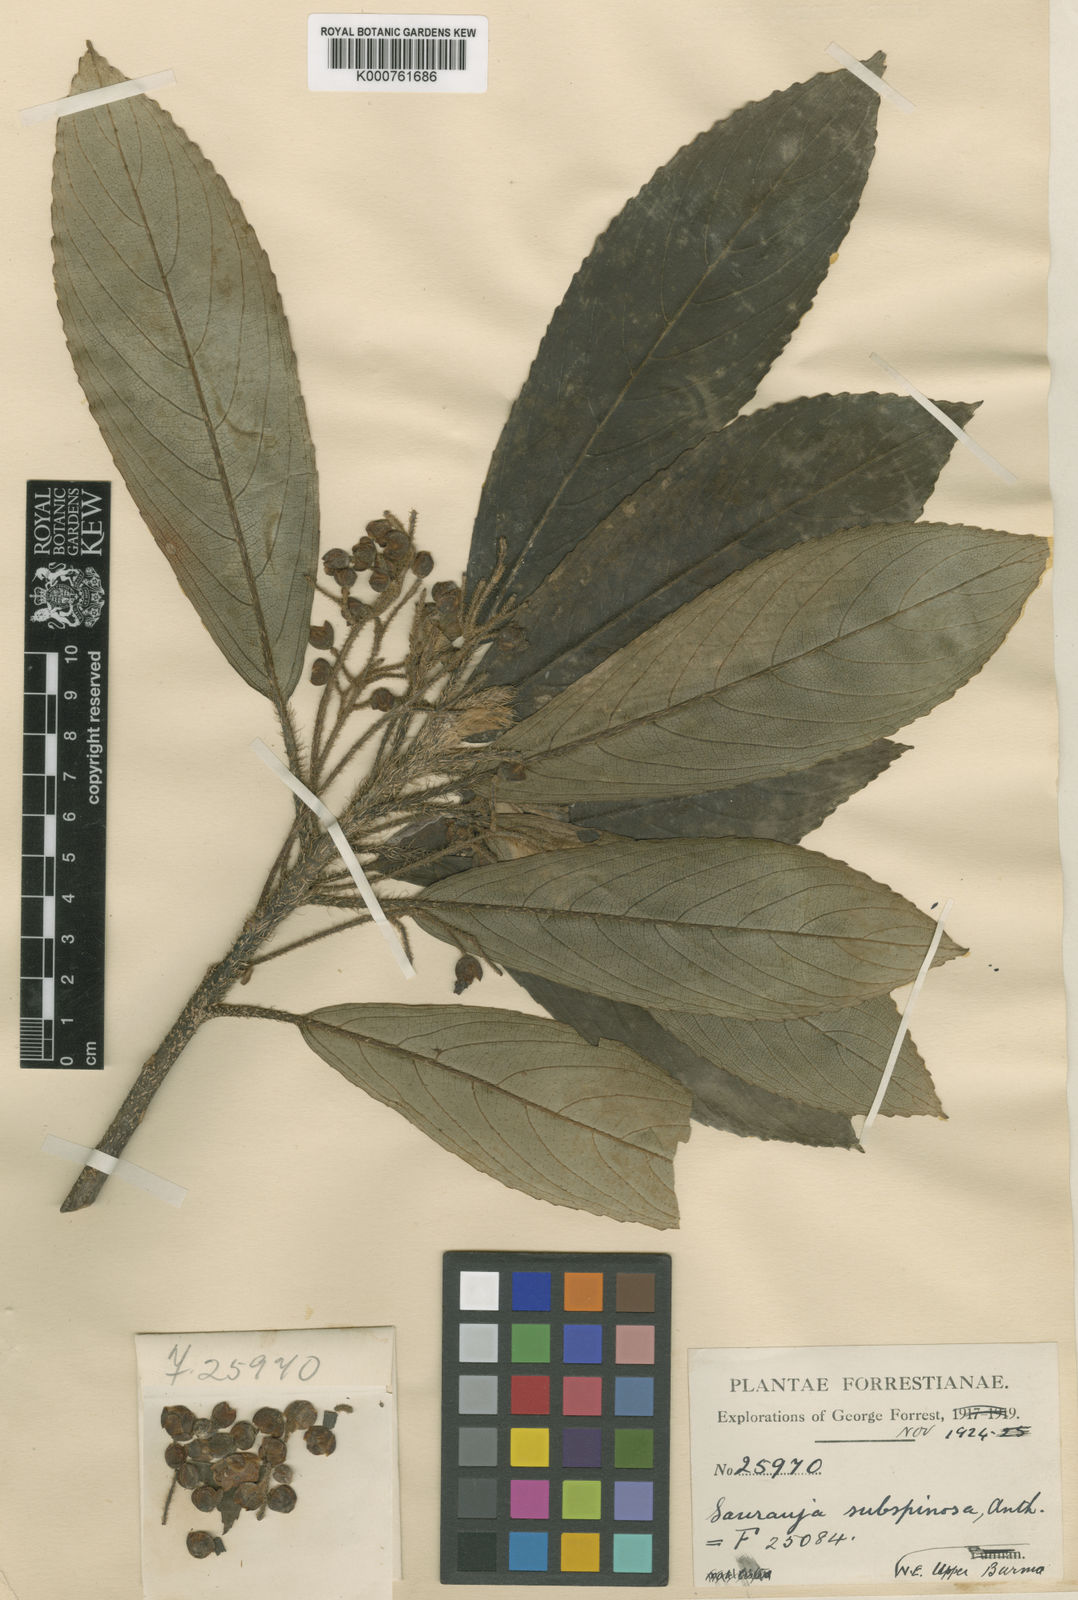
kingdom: Plantae
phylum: Tracheophyta
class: Magnoliopsida
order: Ericales
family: Actinidiaceae
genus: Saurauia
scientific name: Saurauia subspinosa
